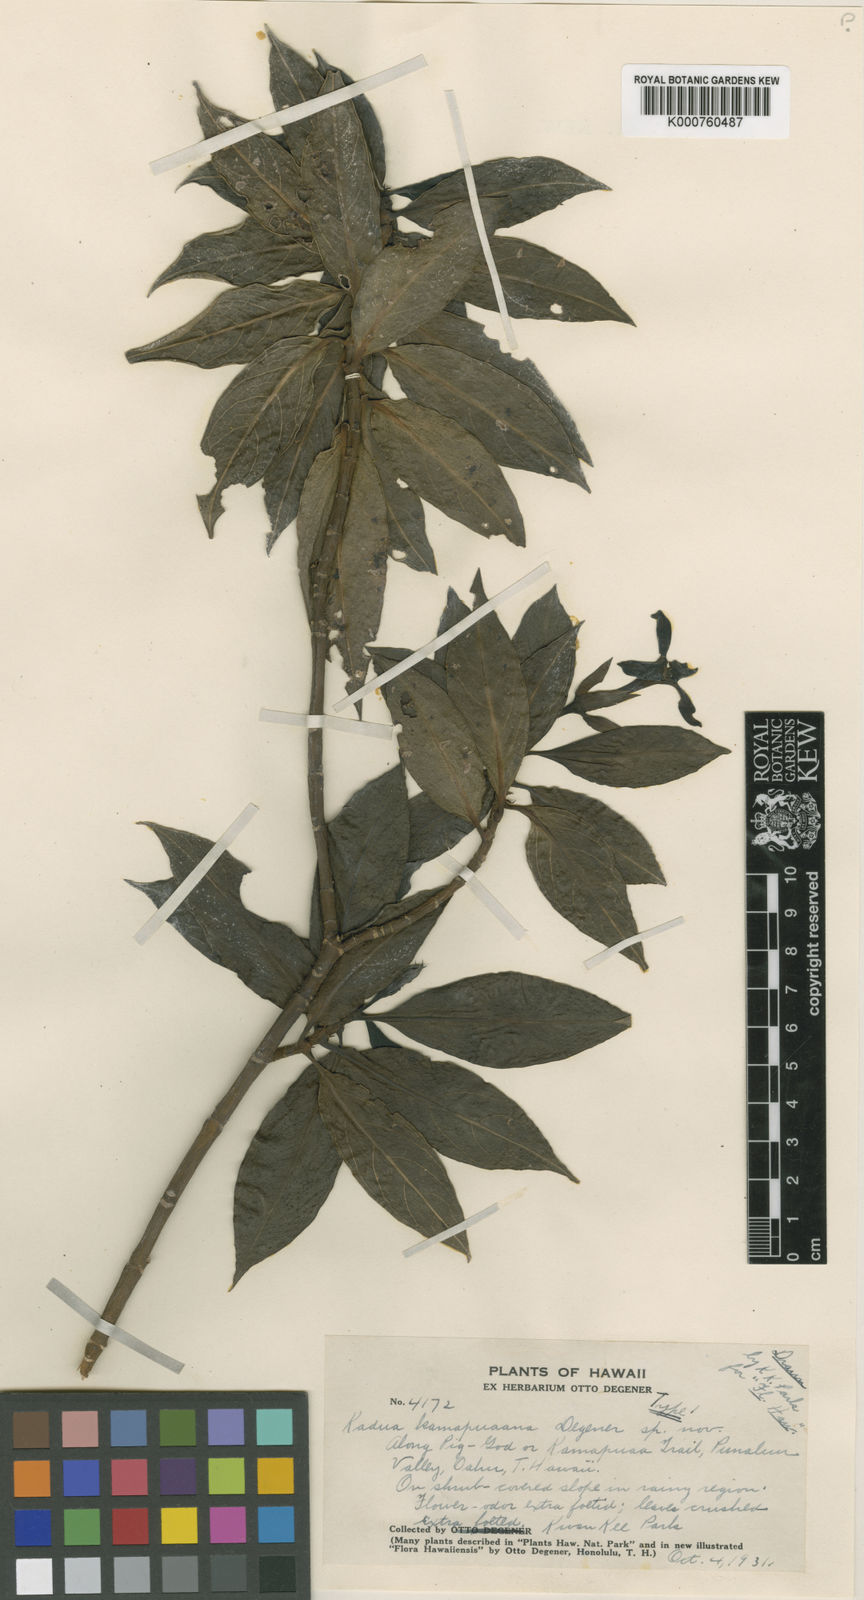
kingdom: Plantae
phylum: Tracheophyta
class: Magnoliopsida
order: Gentianales
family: Rubiaceae
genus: Kadua
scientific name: Kadua fluviatilis
